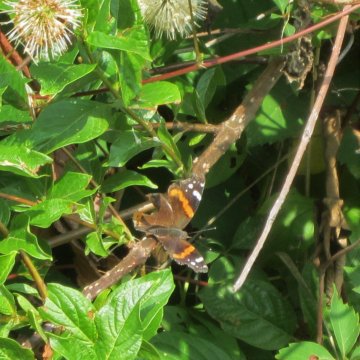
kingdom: Animalia
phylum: Arthropoda
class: Insecta
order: Lepidoptera
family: Nymphalidae
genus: Vanessa
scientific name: Vanessa atalanta
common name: Red Admiral
